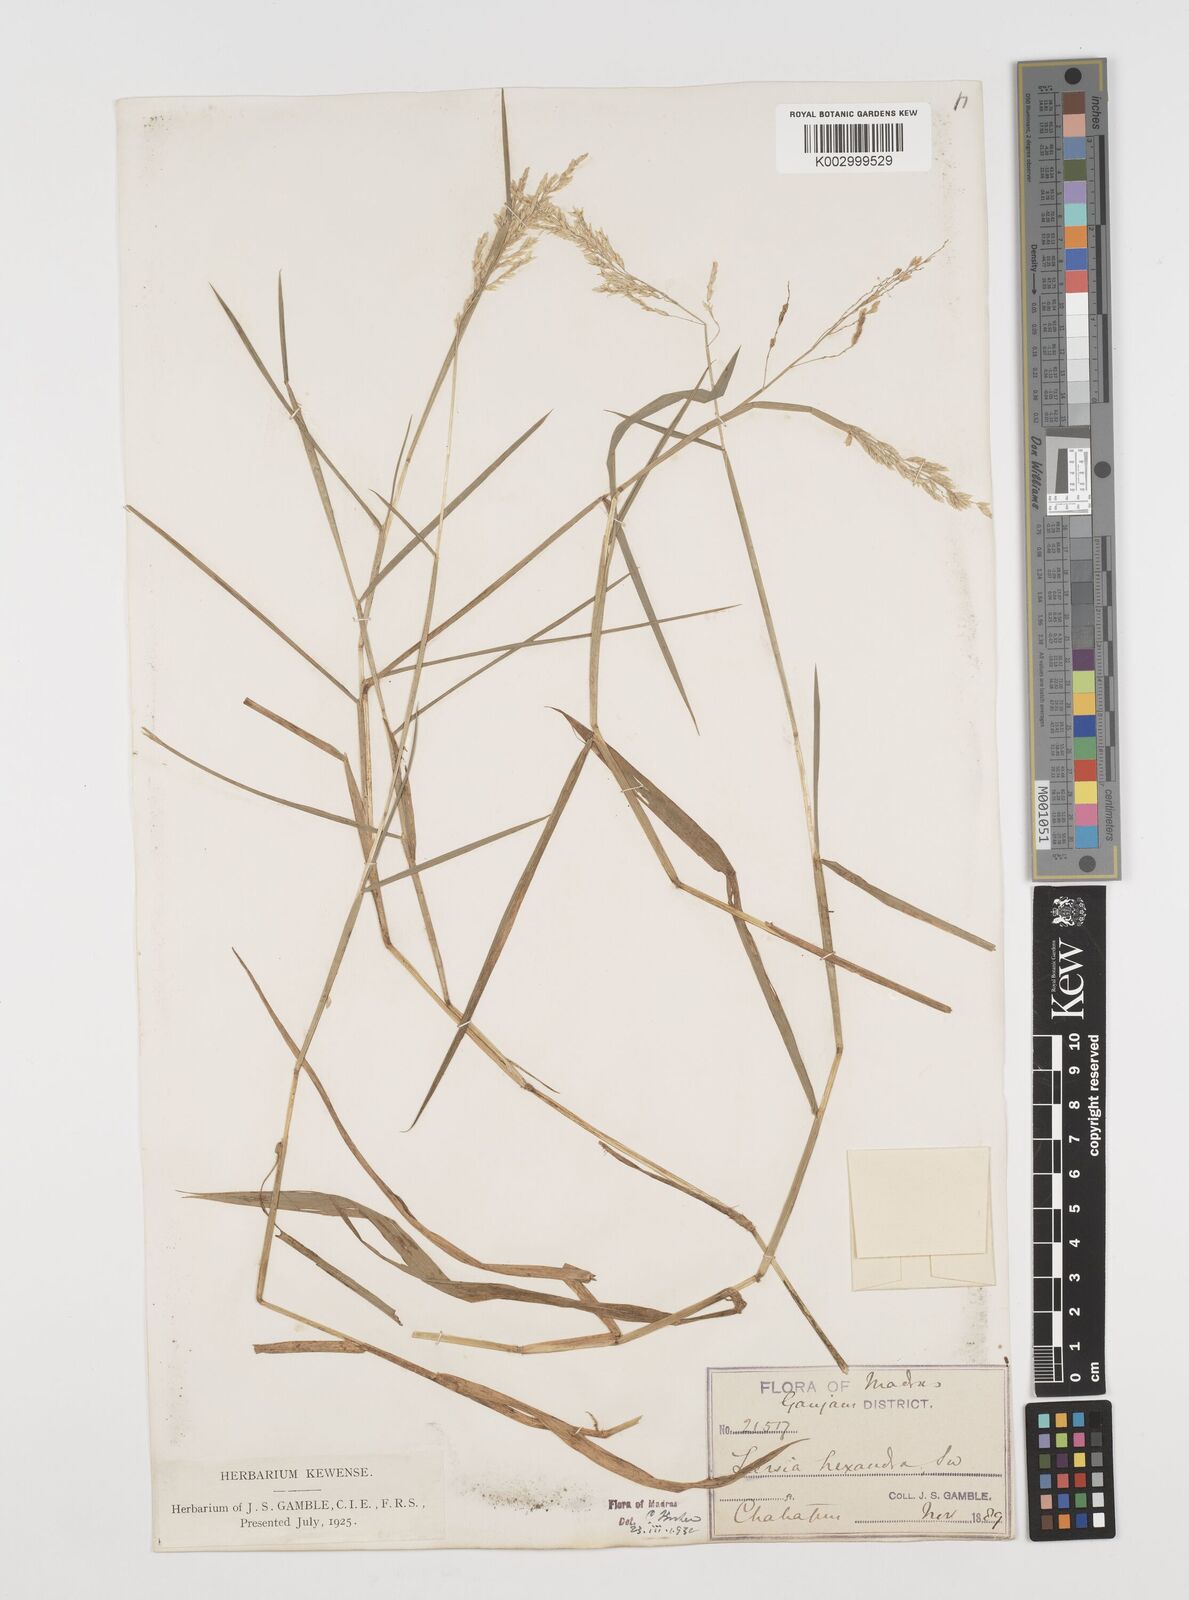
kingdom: Plantae
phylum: Tracheophyta
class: Liliopsida
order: Poales
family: Poaceae
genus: Leersia
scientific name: Leersia hexandra
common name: Southern cut grass
